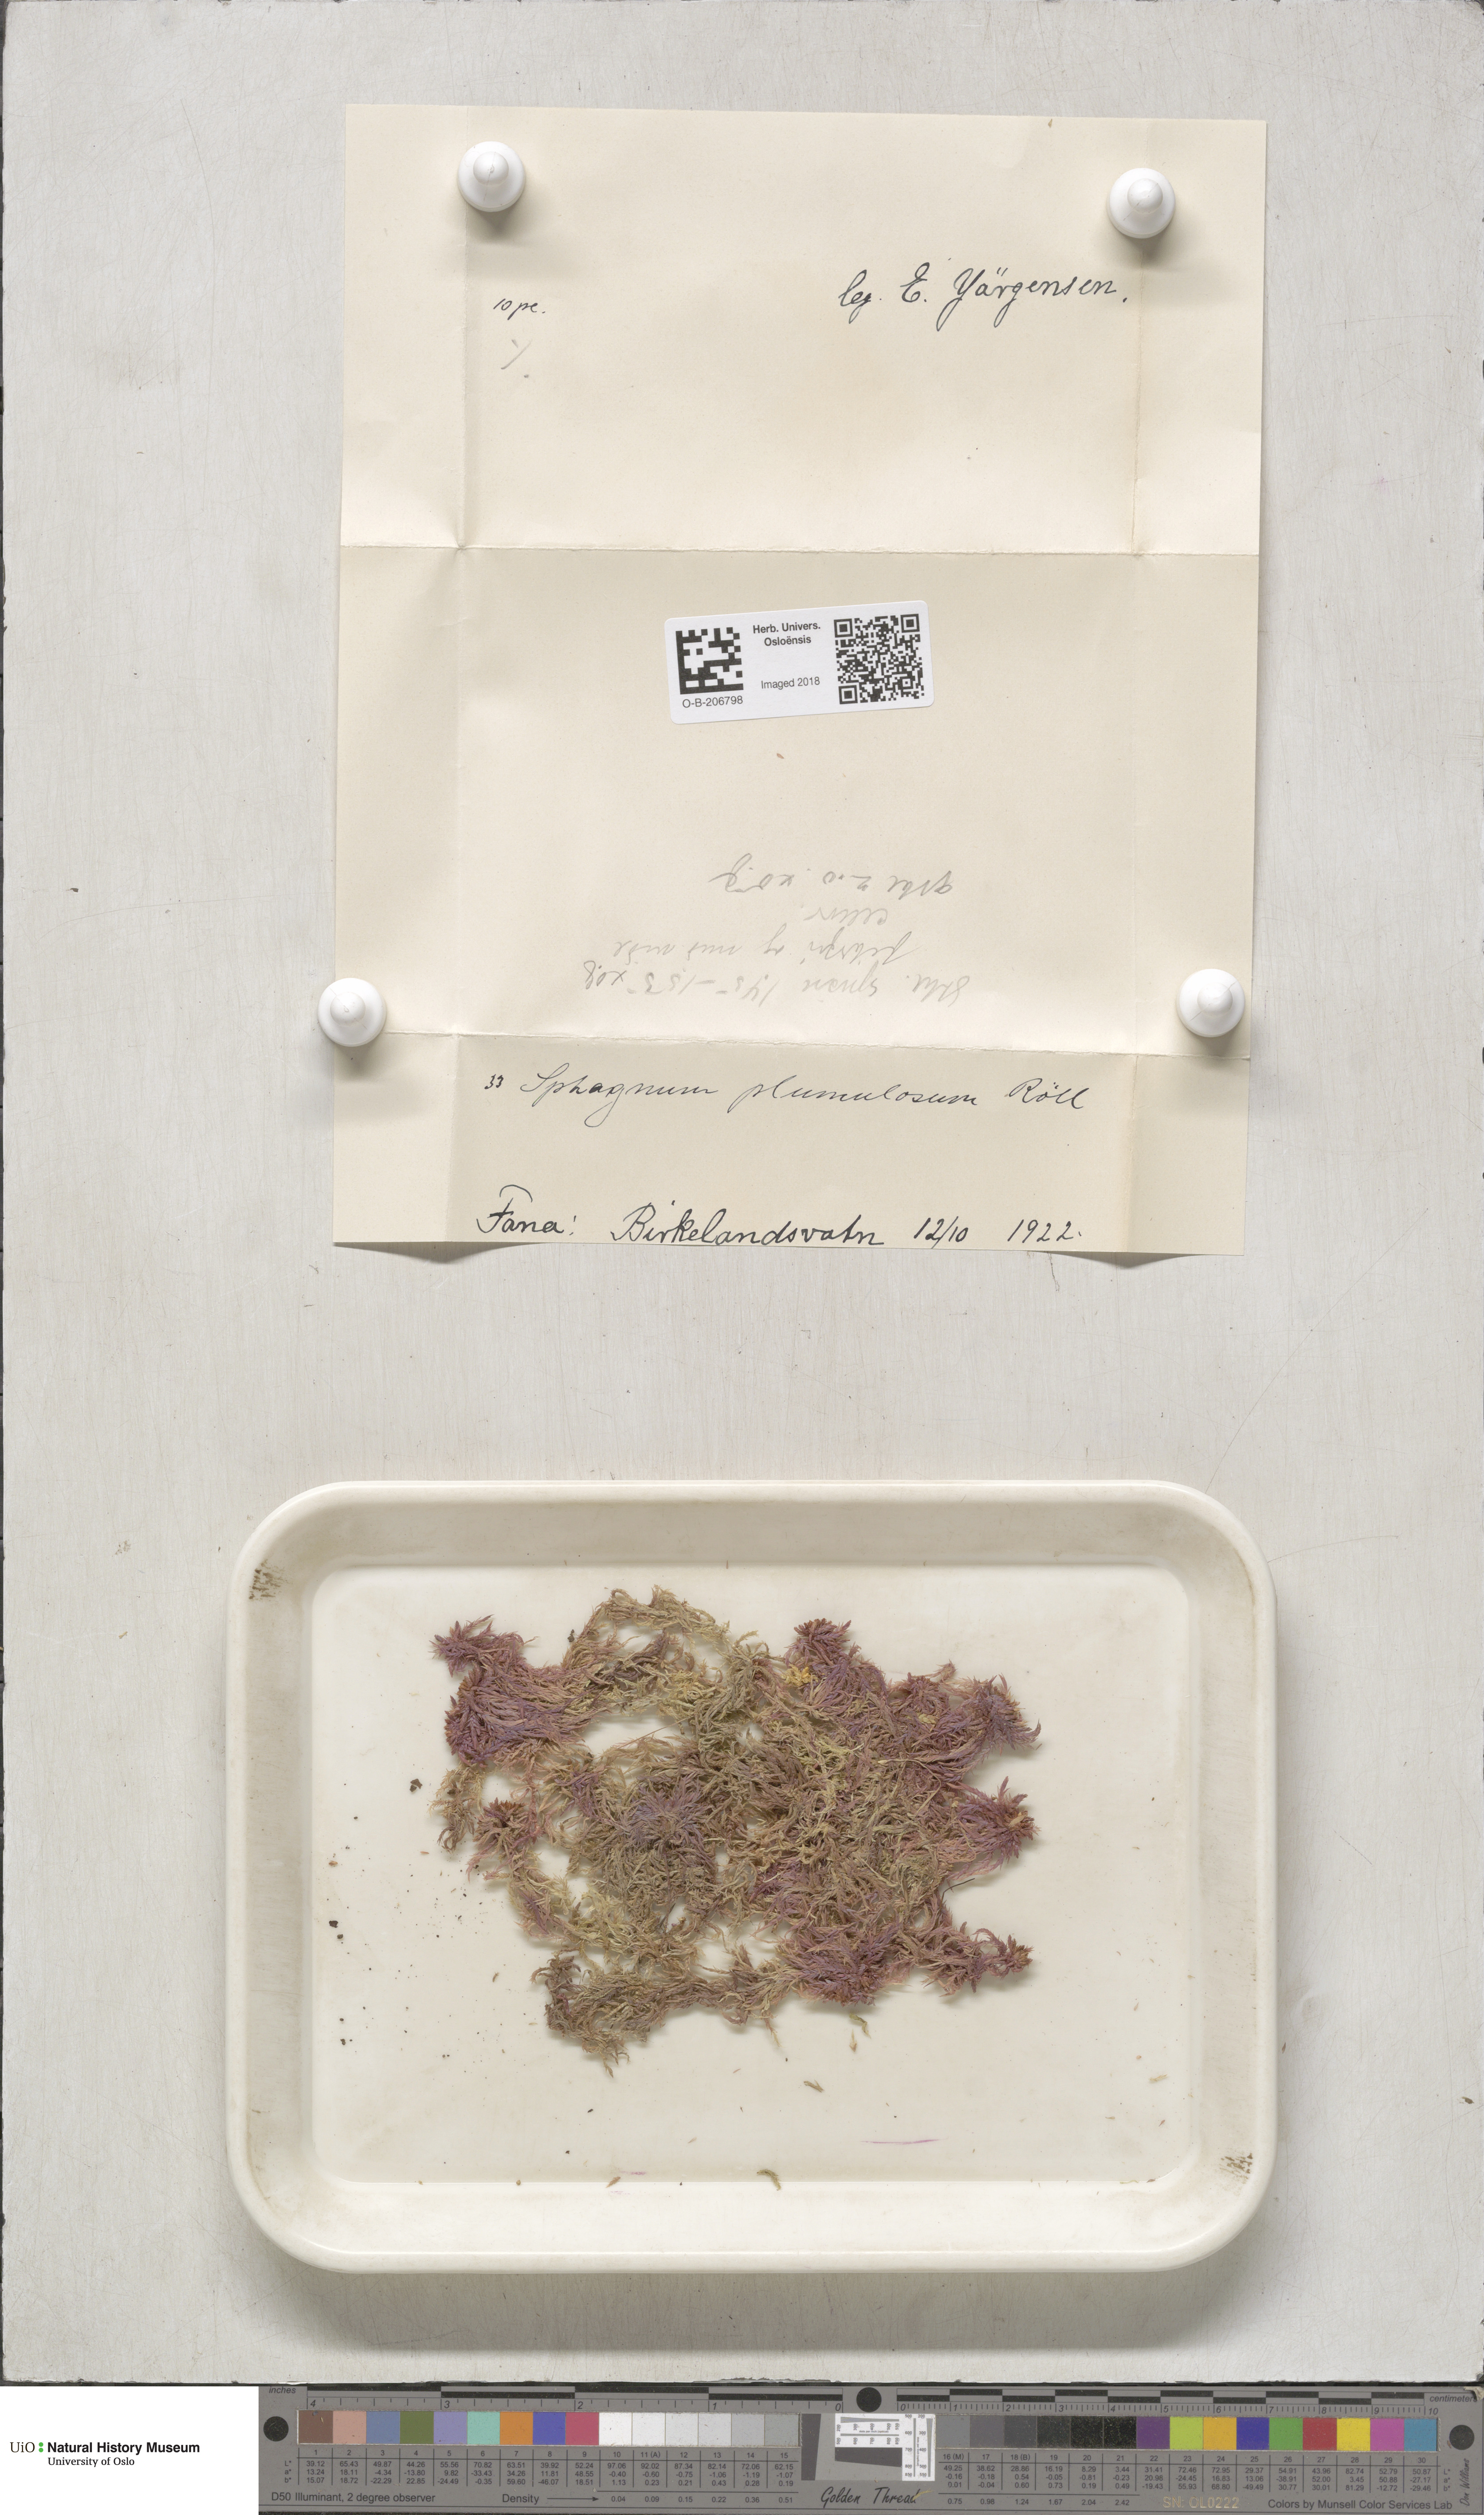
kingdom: Plantae
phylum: Bryophyta
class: Sphagnopsida
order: Sphagnales
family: Sphagnaceae
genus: Sphagnum
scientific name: Sphagnum subnitens
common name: Lustrous bog-moss
